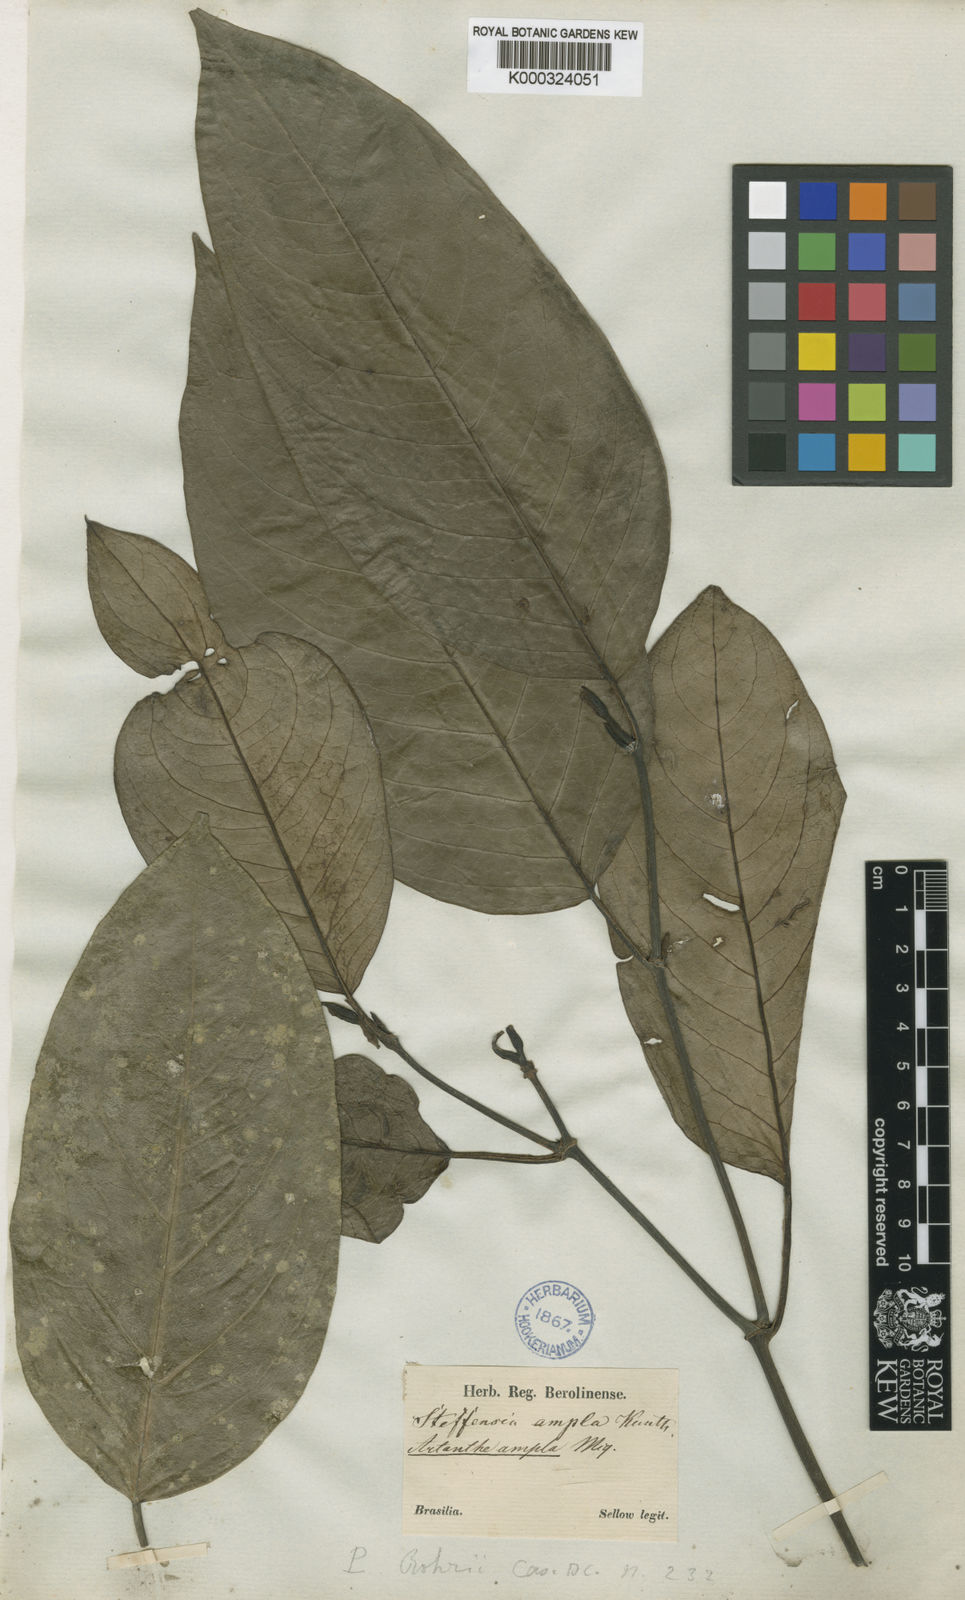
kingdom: Plantae
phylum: Tracheophyta
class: Magnoliopsida
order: Piperales
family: Piperaceae
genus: Piper
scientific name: Piper amplum
